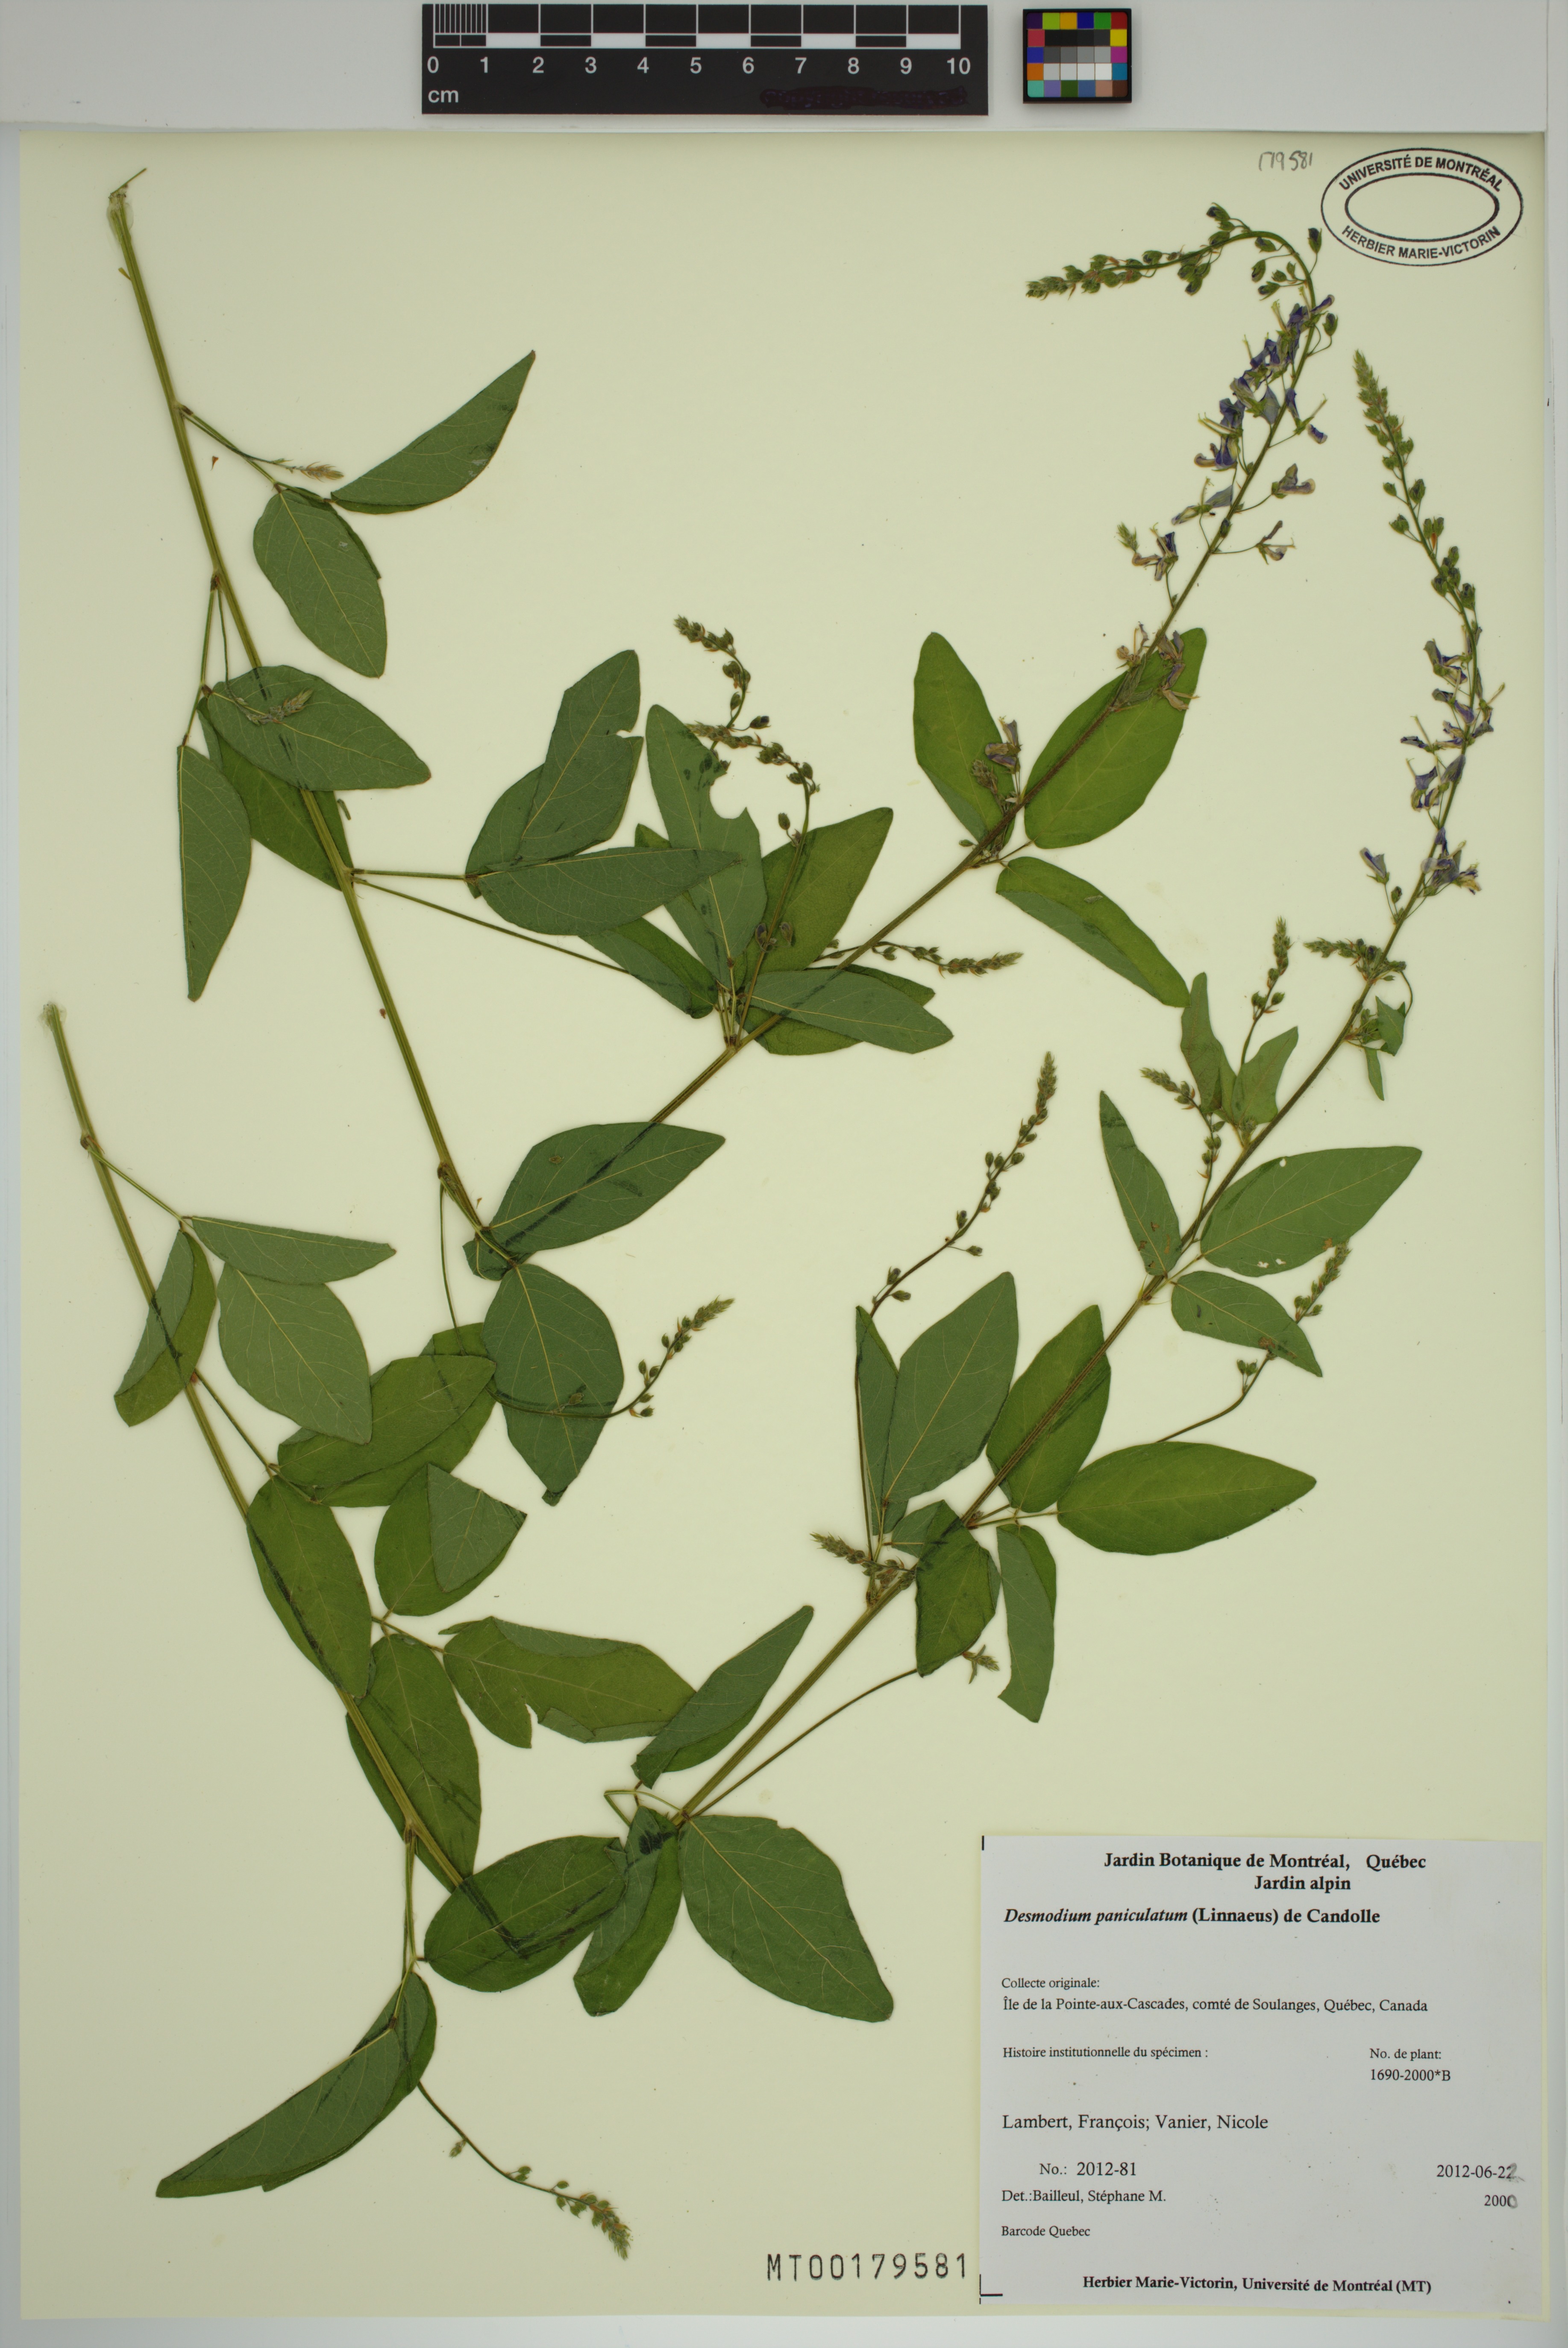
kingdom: Plantae
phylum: Tracheophyta
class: Magnoliopsida
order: Fabales
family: Fabaceae
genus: Desmodium
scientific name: Desmodium paniculatum
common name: Panicled tick-clover
